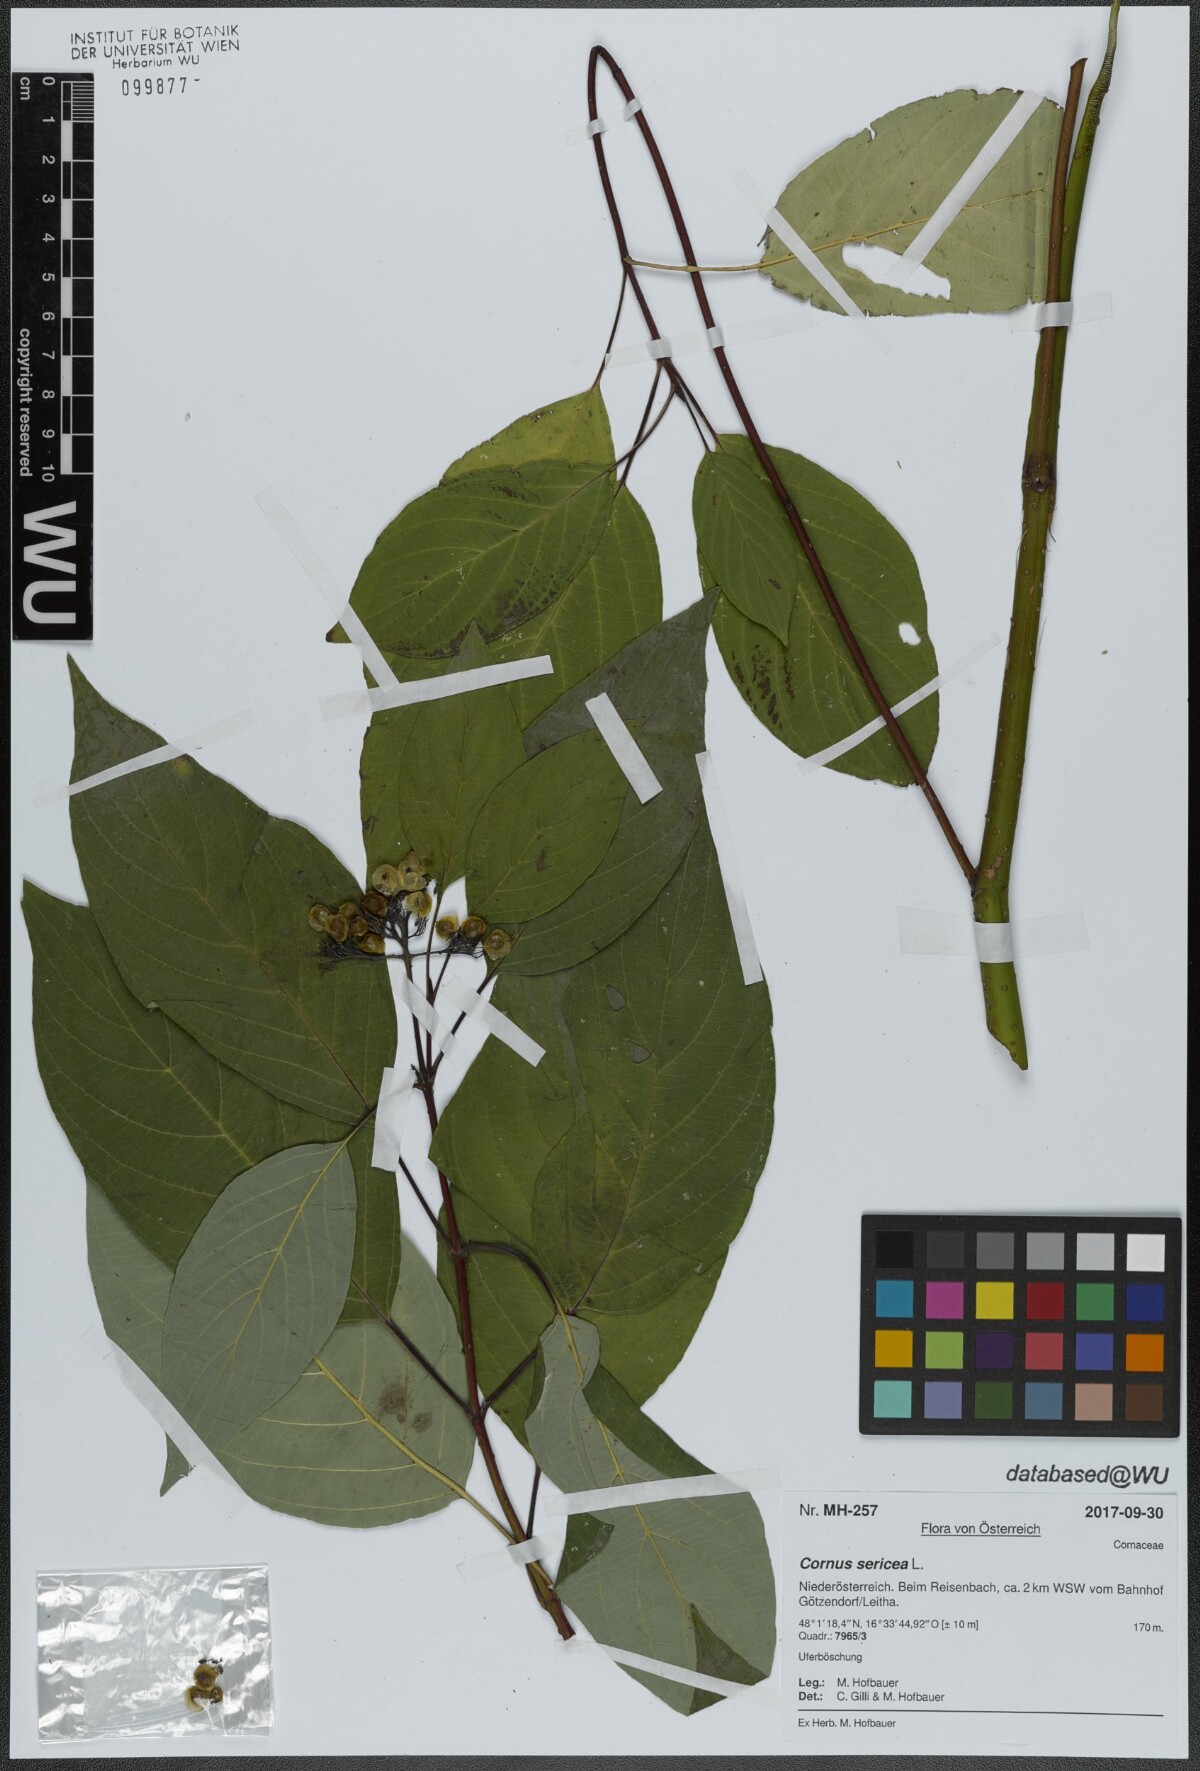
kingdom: Plantae
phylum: Tracheophyta
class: Magnoliopsida
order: Cornales
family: Cornaceae
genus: Cornus
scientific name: Cornus sericea
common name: Red-osier dogwood
